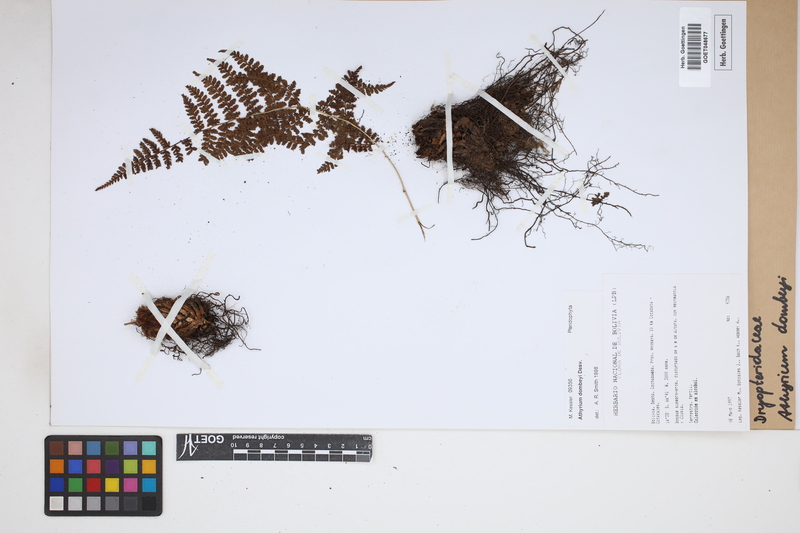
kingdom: Plantae
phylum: Tracheophyta
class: Polypodiopsida
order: Polypodiales
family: Athyriaceae
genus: Athyrium
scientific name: Athyrium dombeyi
